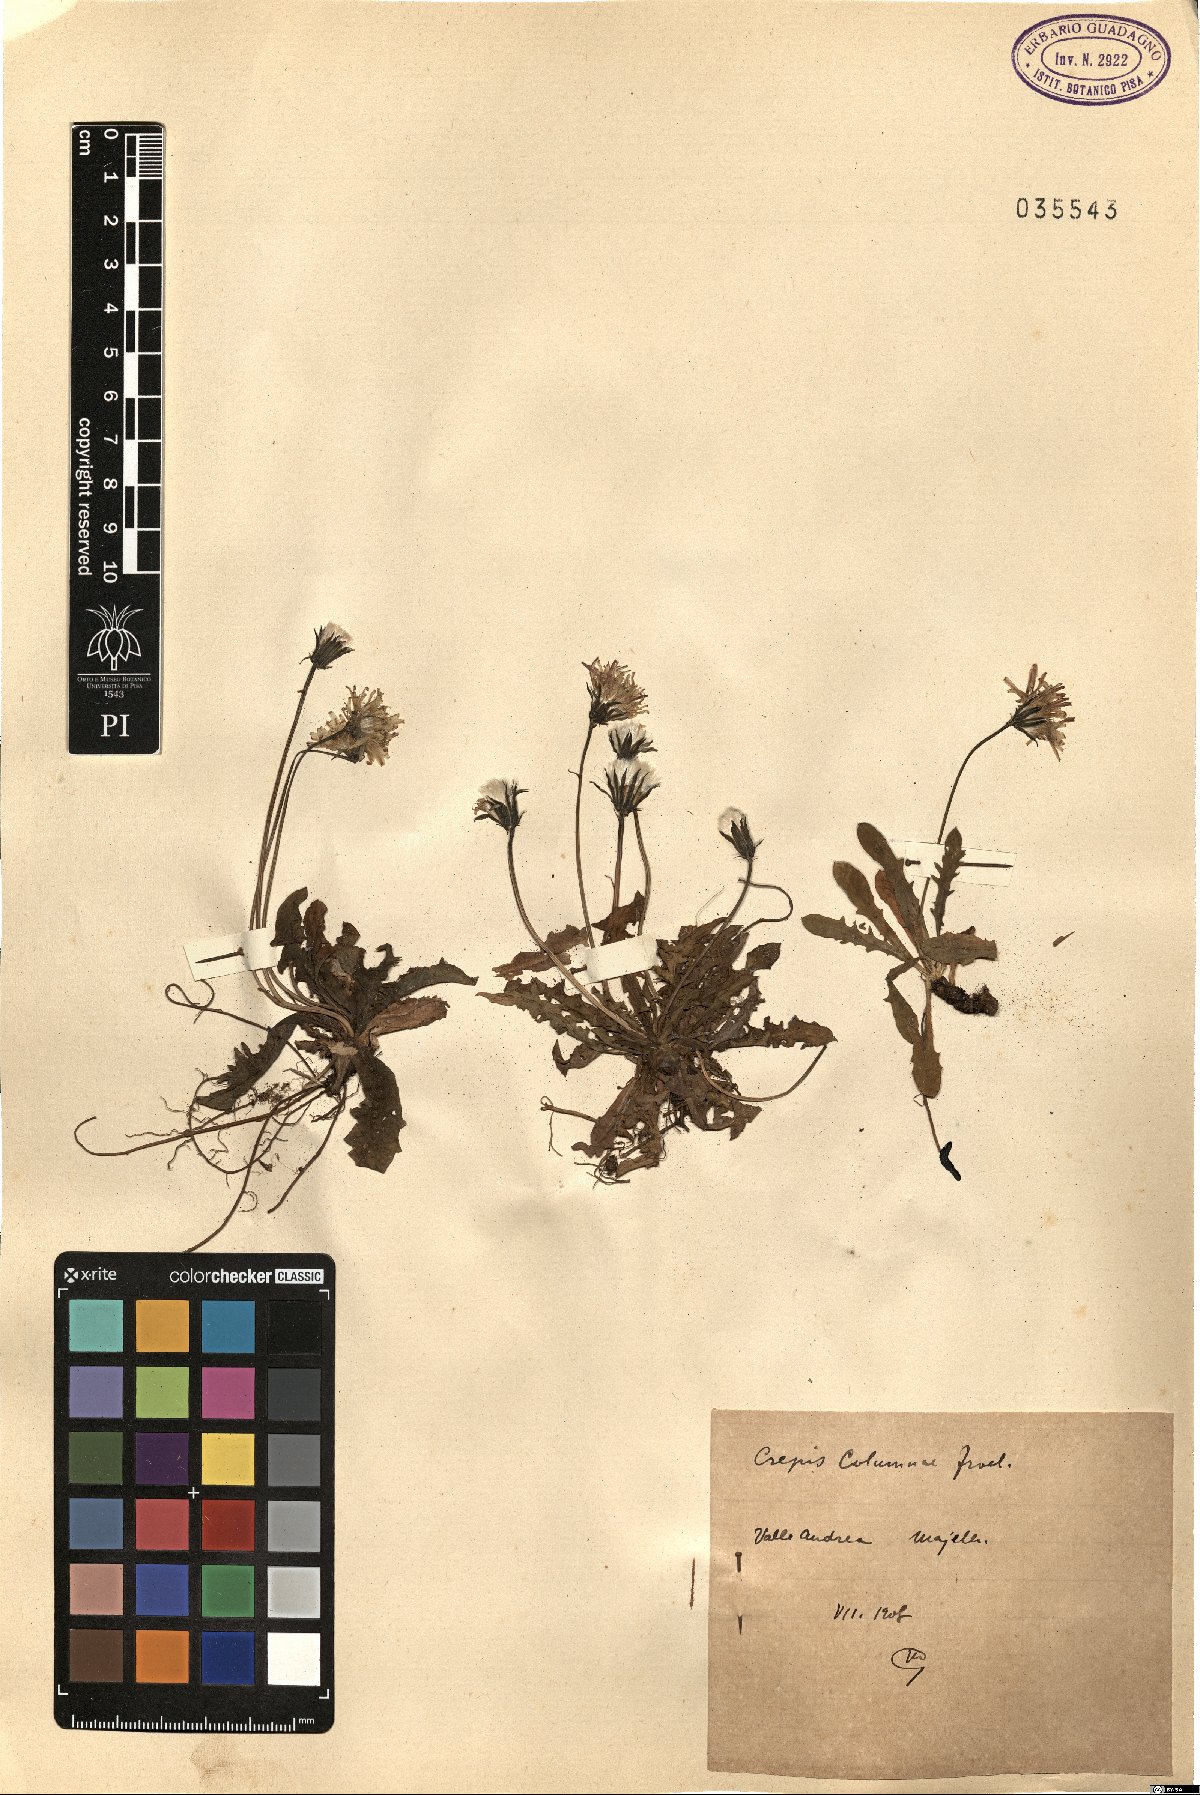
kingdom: Plantae
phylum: Tracheophyta
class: Magnoliopsida
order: Asterales
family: Asteraceae
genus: Crepis
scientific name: Crepis aurea
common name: Golden hawk's-beard
